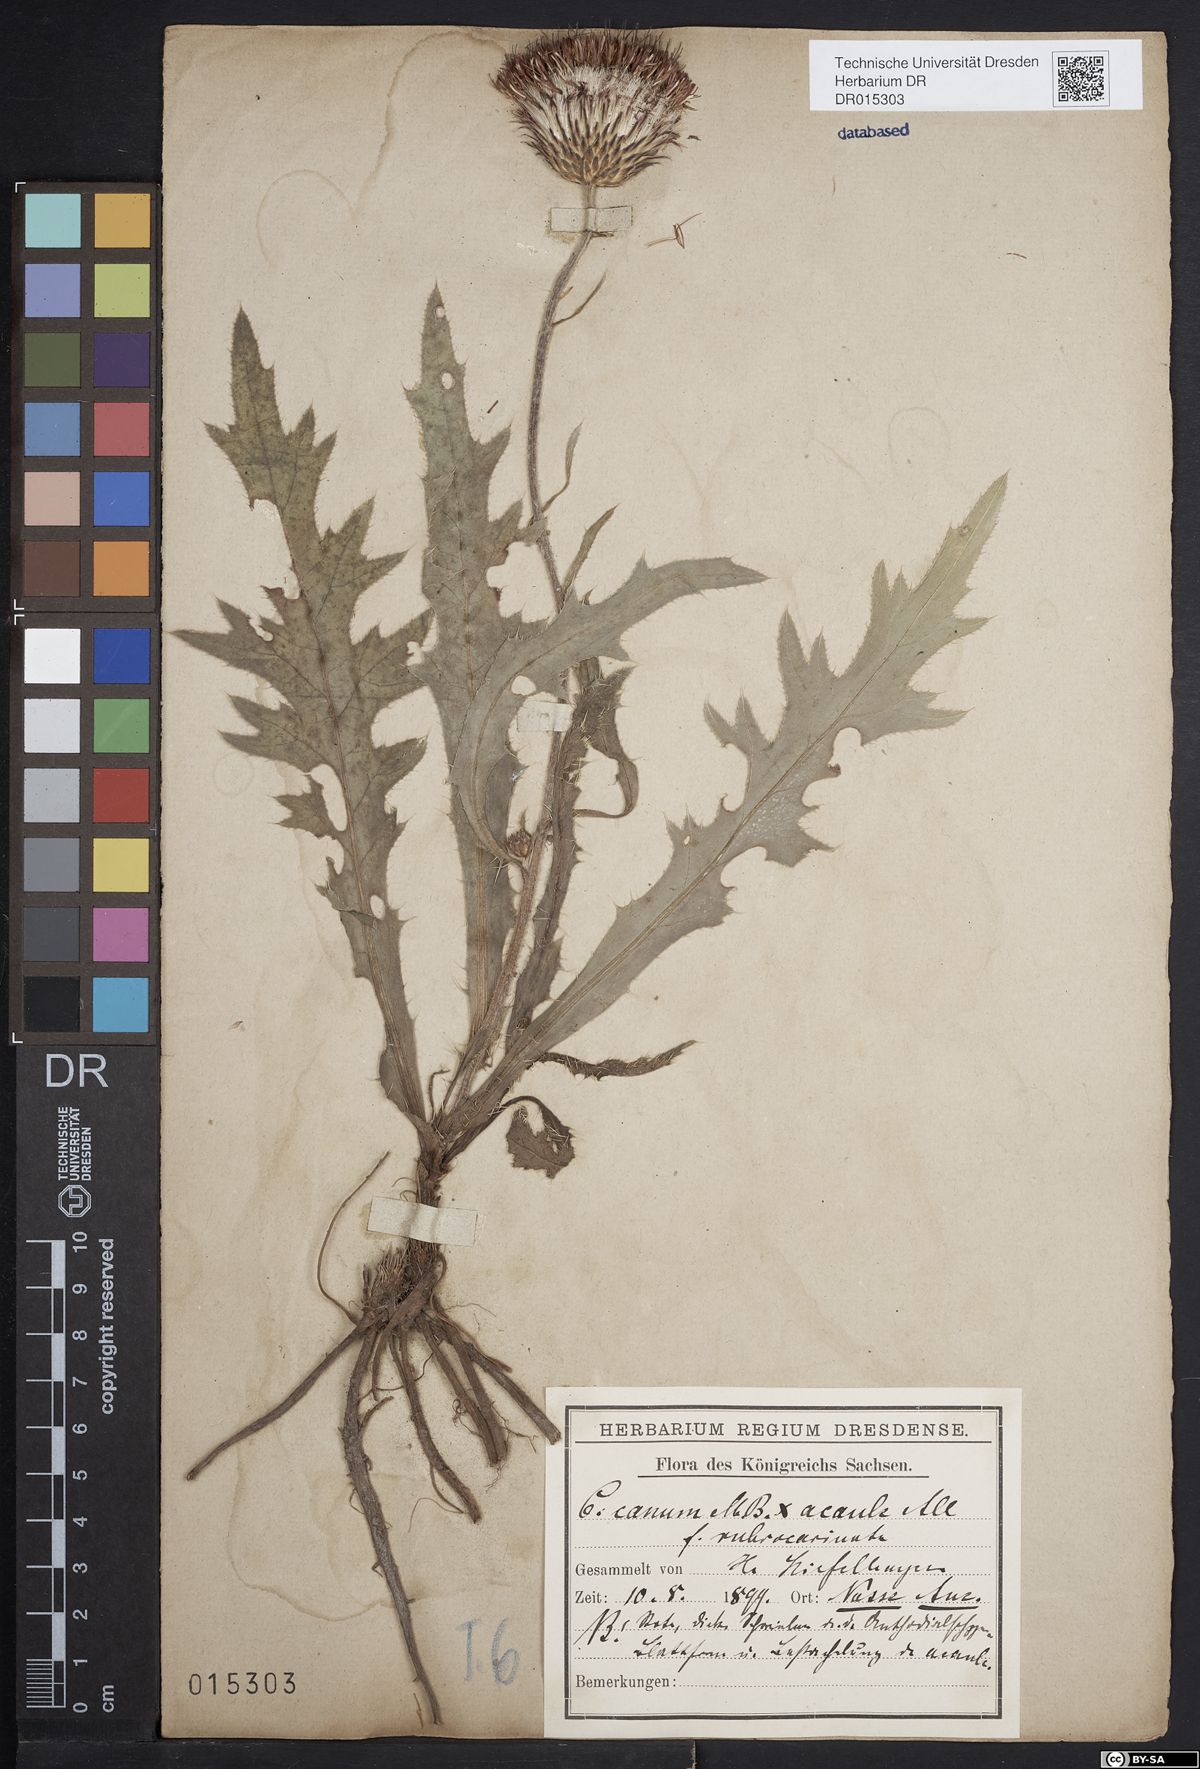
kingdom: Plantae
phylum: Tracheophyta
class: Magnoliopsida
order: Asterales
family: Asteraceae
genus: Cirsium
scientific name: Cirsium winklerianum
